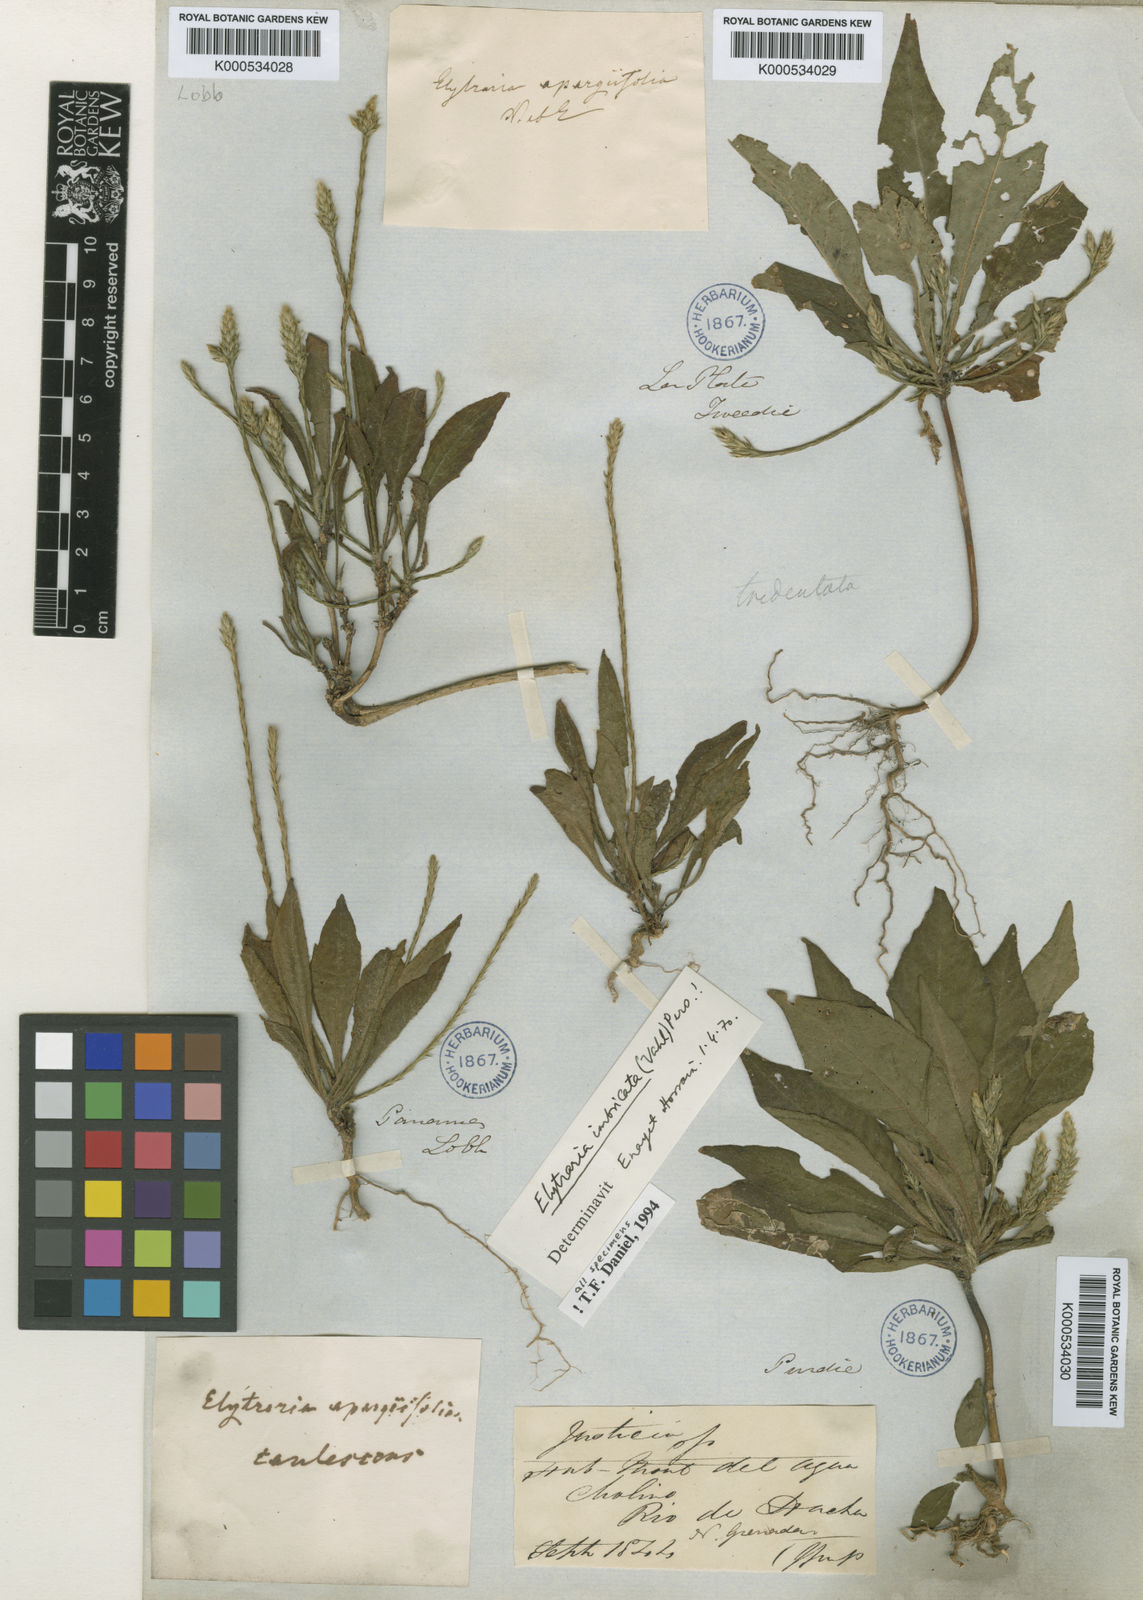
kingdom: Plantae
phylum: Tracheophyta
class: Magnoliopsida
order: Lamiales
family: Acanthaceae
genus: Elytraria
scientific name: Elytraria imbricata
